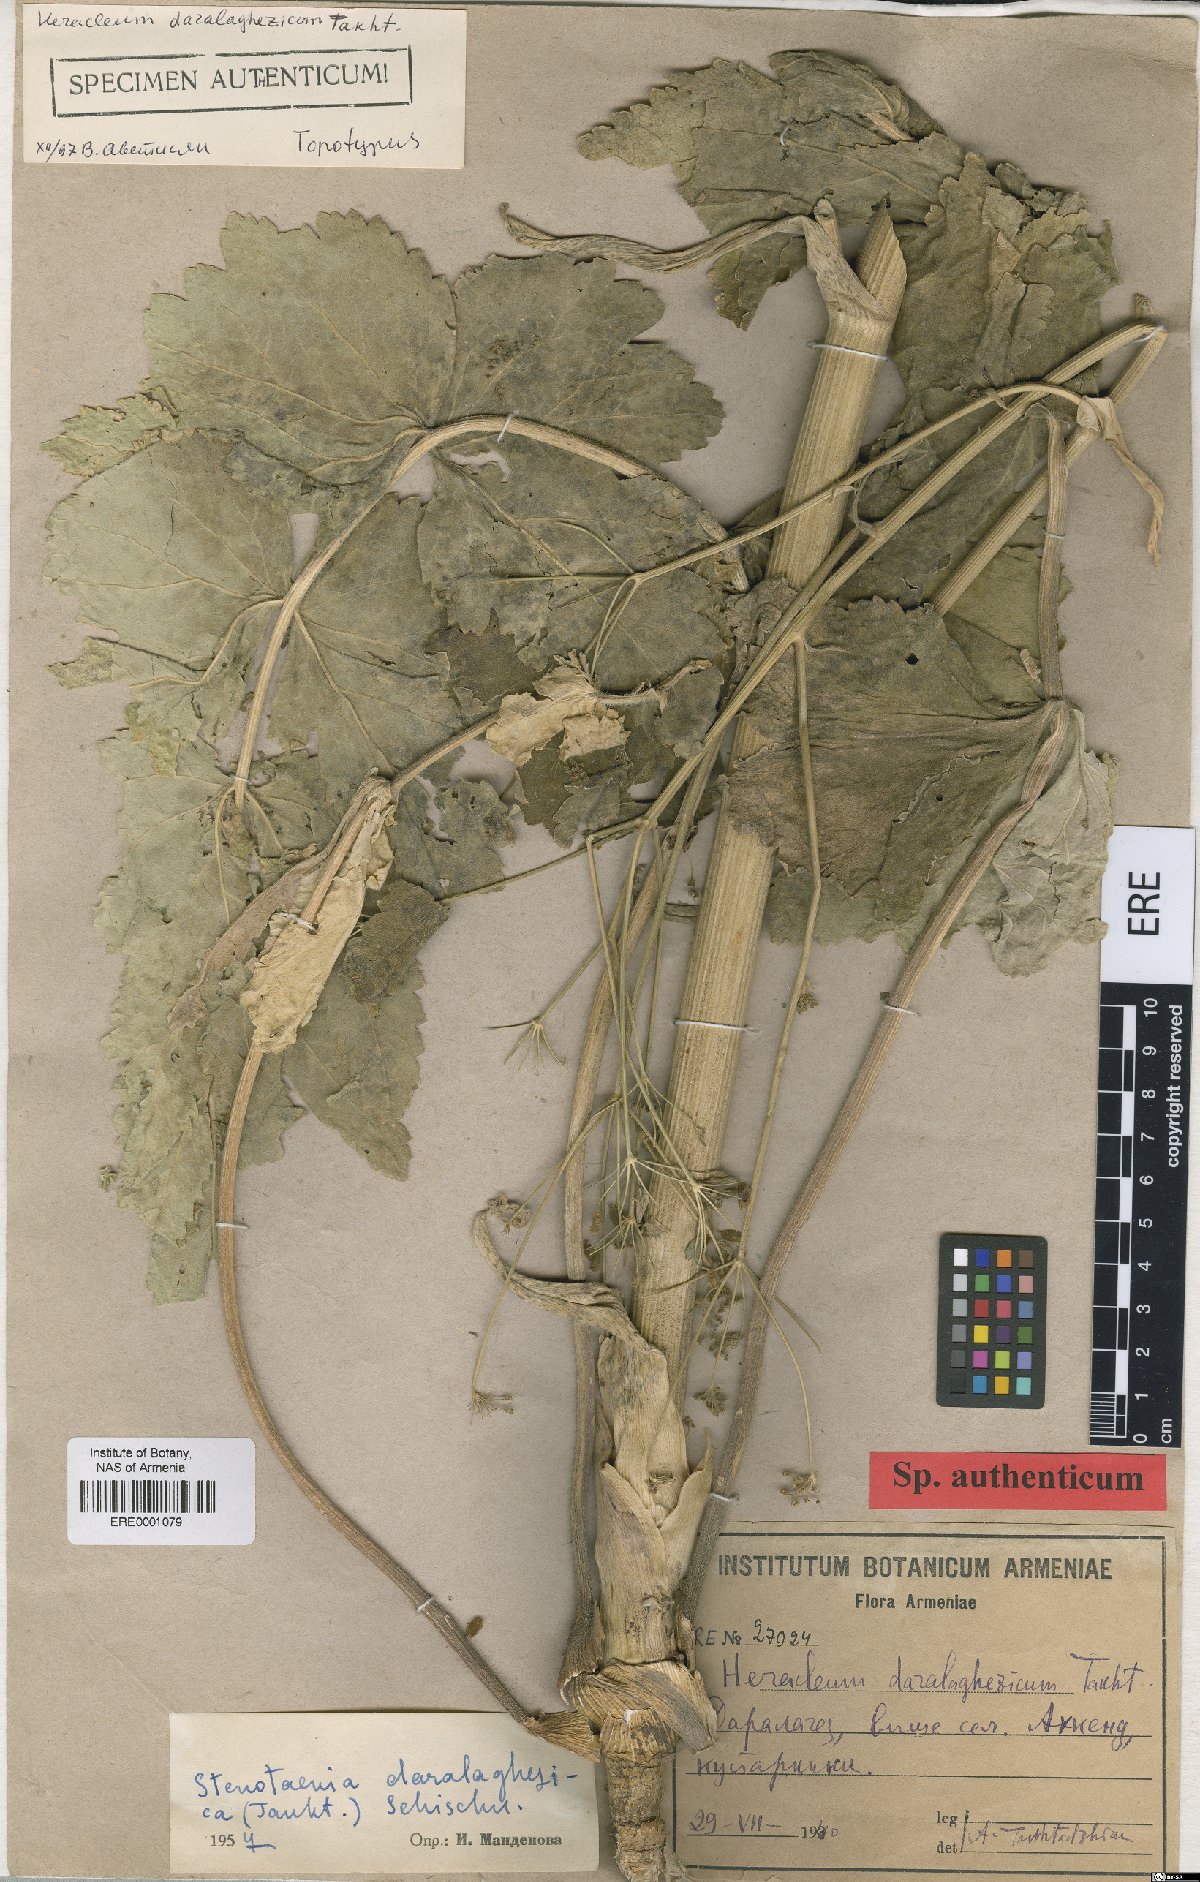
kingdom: Plantae
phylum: Tracheophyta
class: Magnoliopsida
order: Apiales
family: Apiaceae
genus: Stenotaenia
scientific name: Stenotaenia daralaghezica
